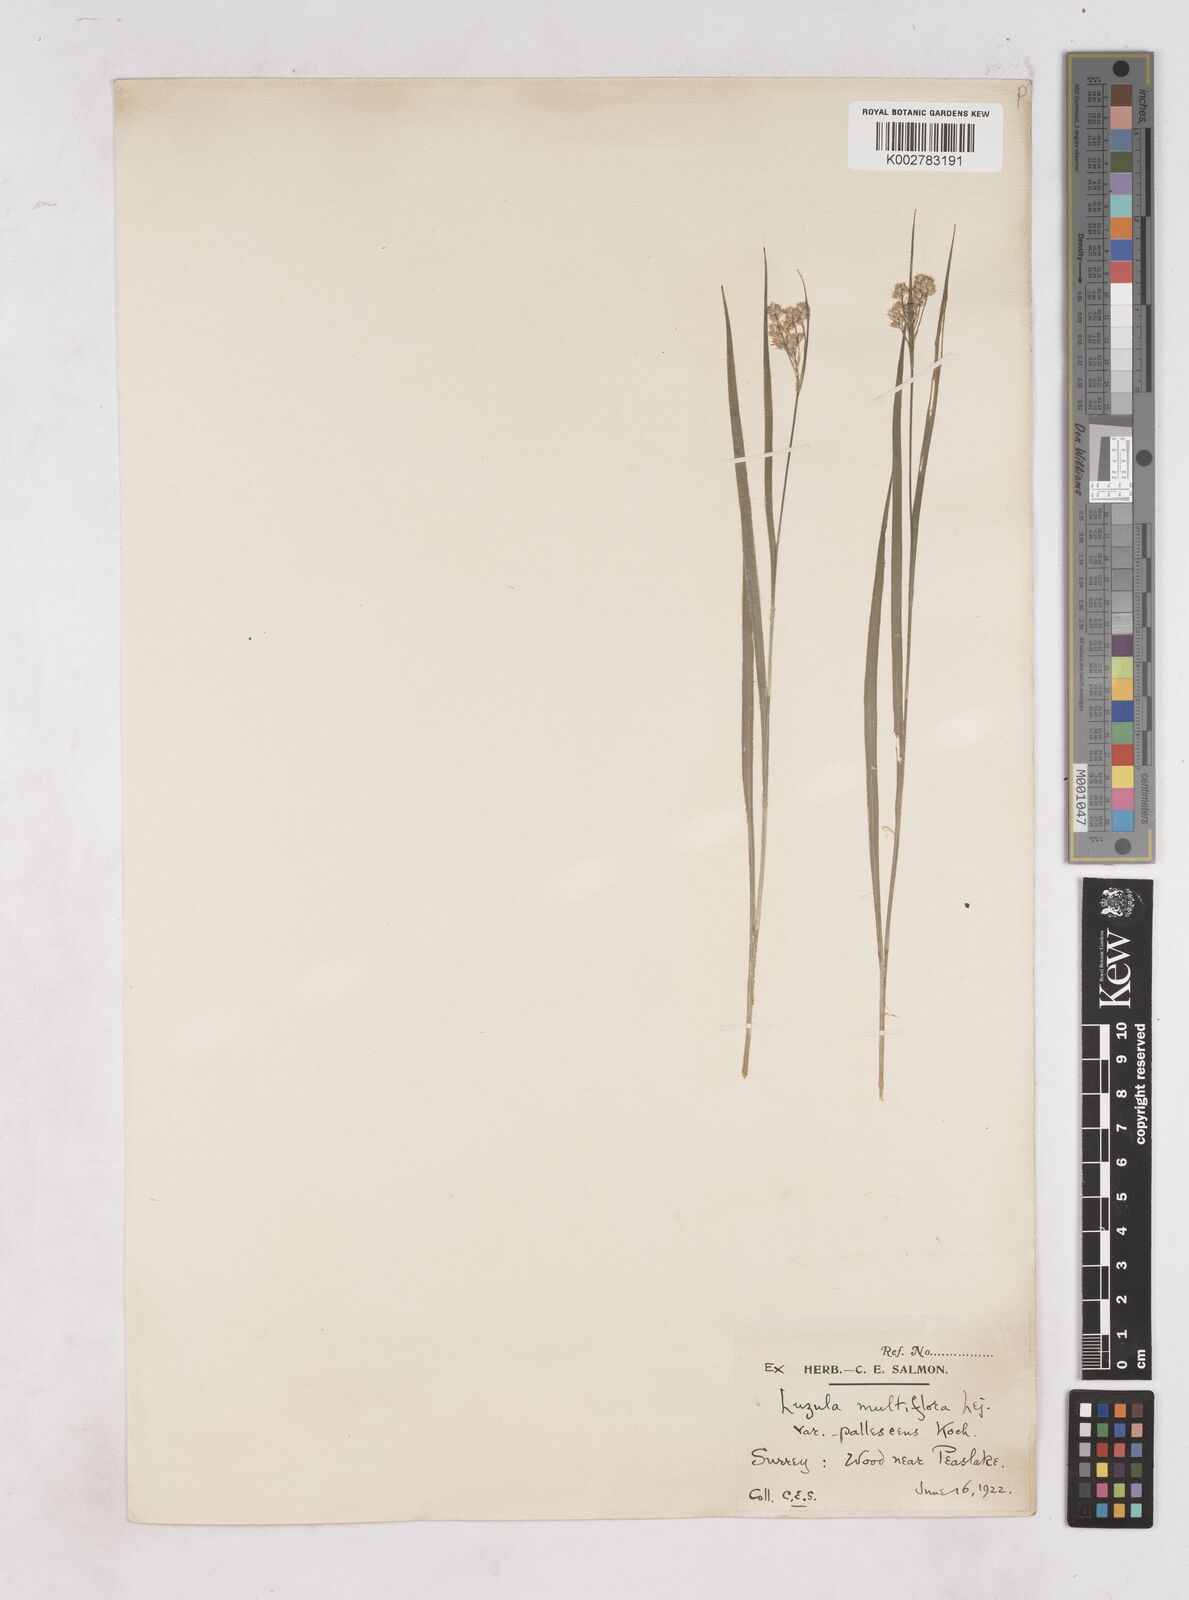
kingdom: Plantae
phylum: Tracheophyta
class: Liliopsida
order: Poales
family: Juncaceae
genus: Luzula
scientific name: Luzula pallescens
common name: Fen wood-rush
